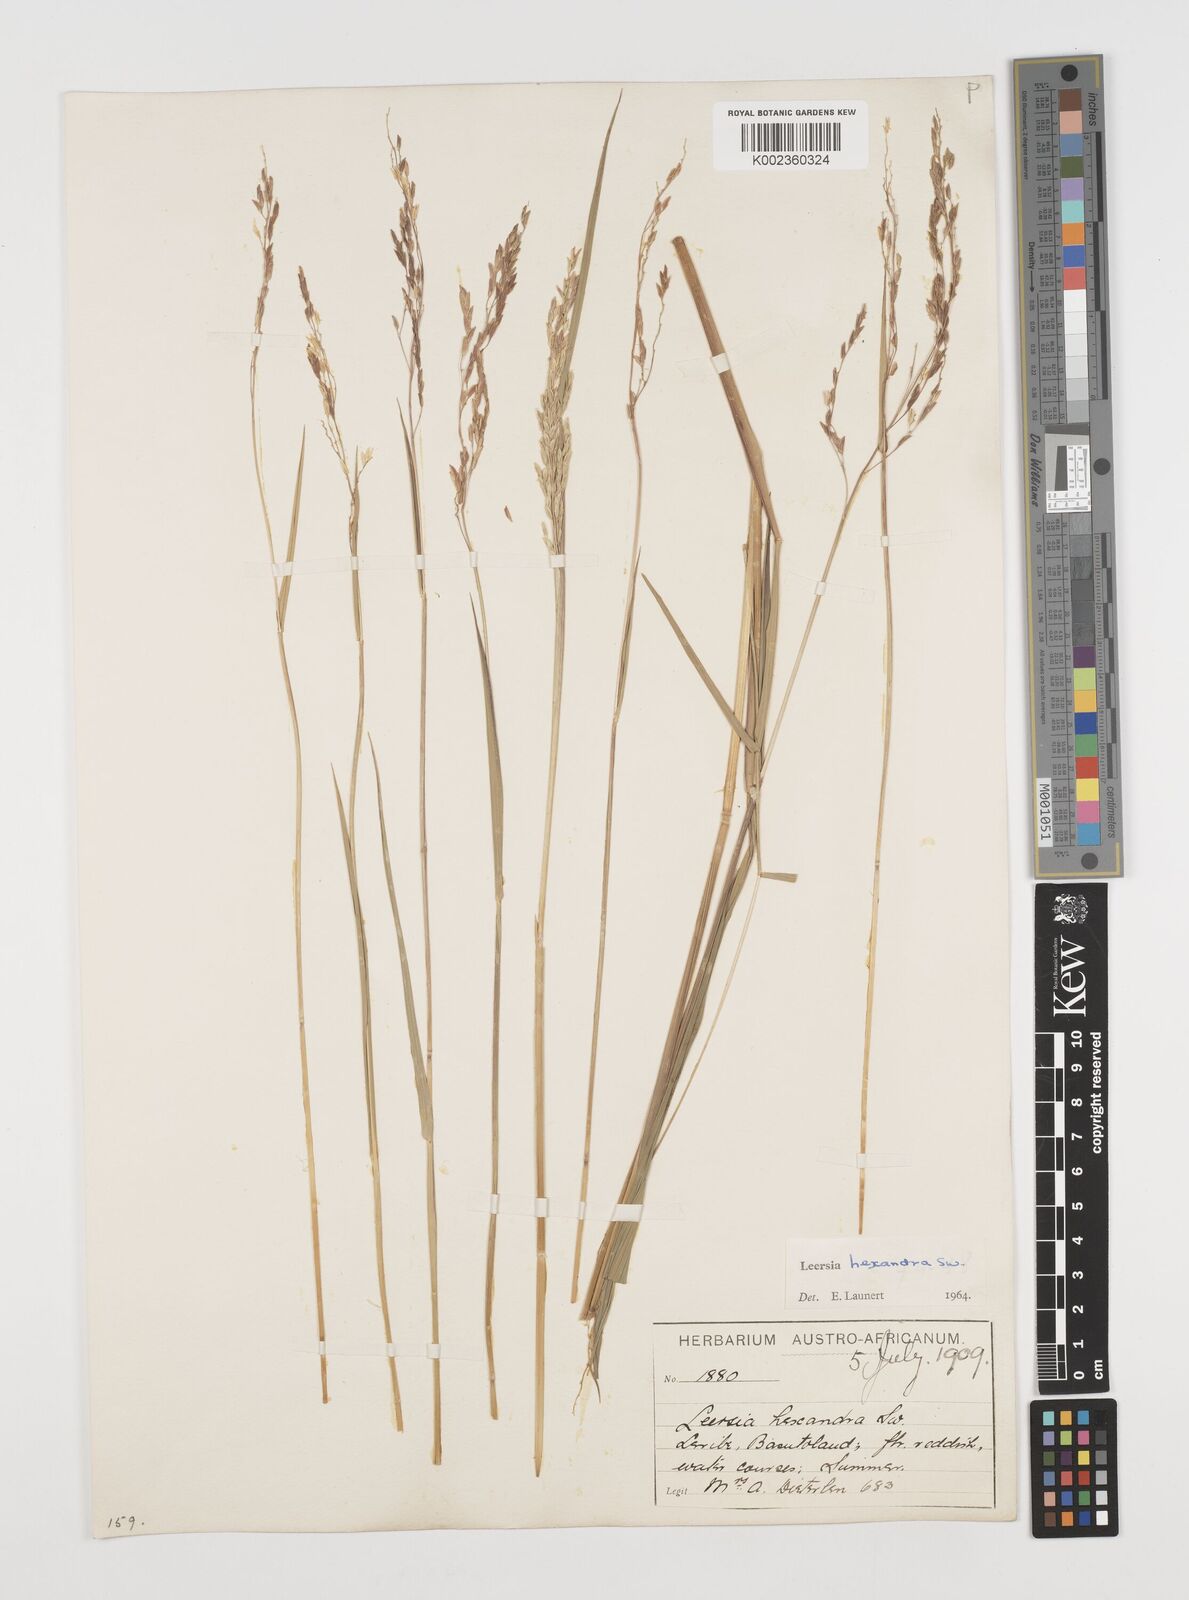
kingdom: Plantae
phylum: Tracheophyta
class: Liliopsida
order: Poales
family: Poaceae
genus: Leersia
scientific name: Leersia hexandra
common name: Southern cut grass
